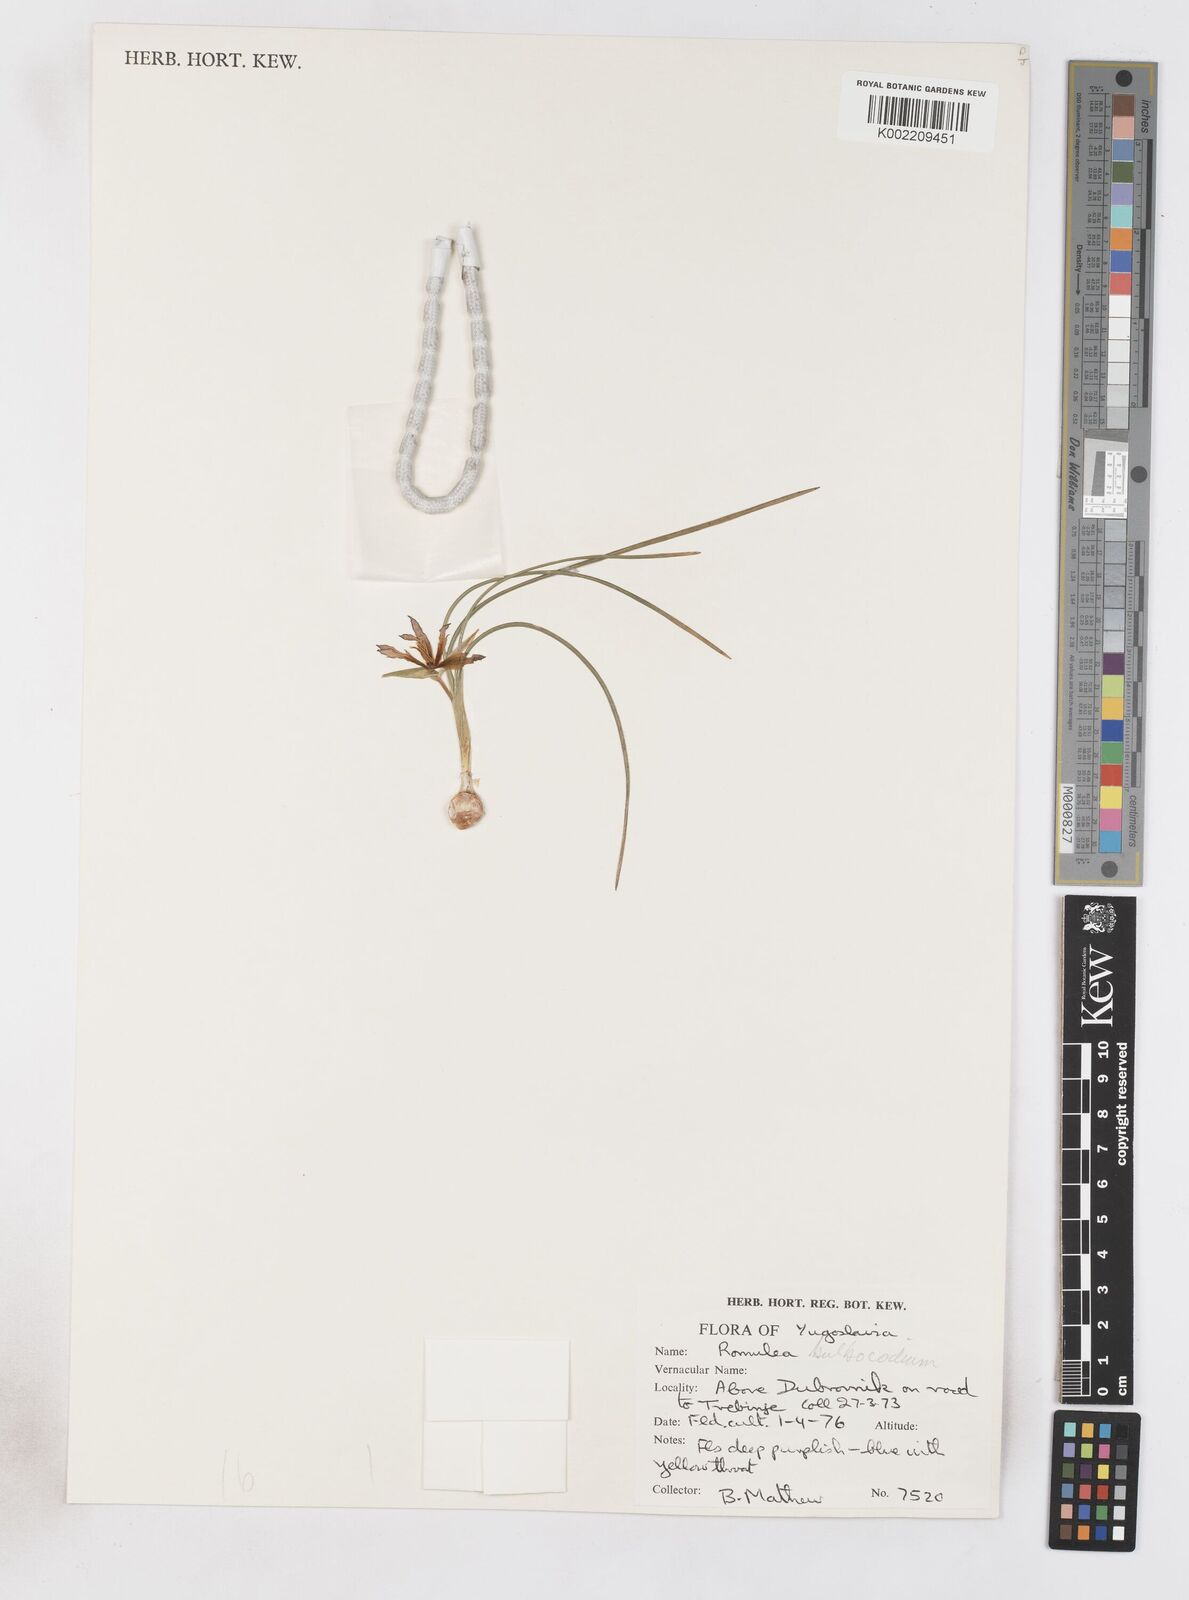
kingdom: Plantae
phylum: Tracheophyta
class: Liliopsida
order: Asparagales
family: Iridaceae
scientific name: Iridaceae
